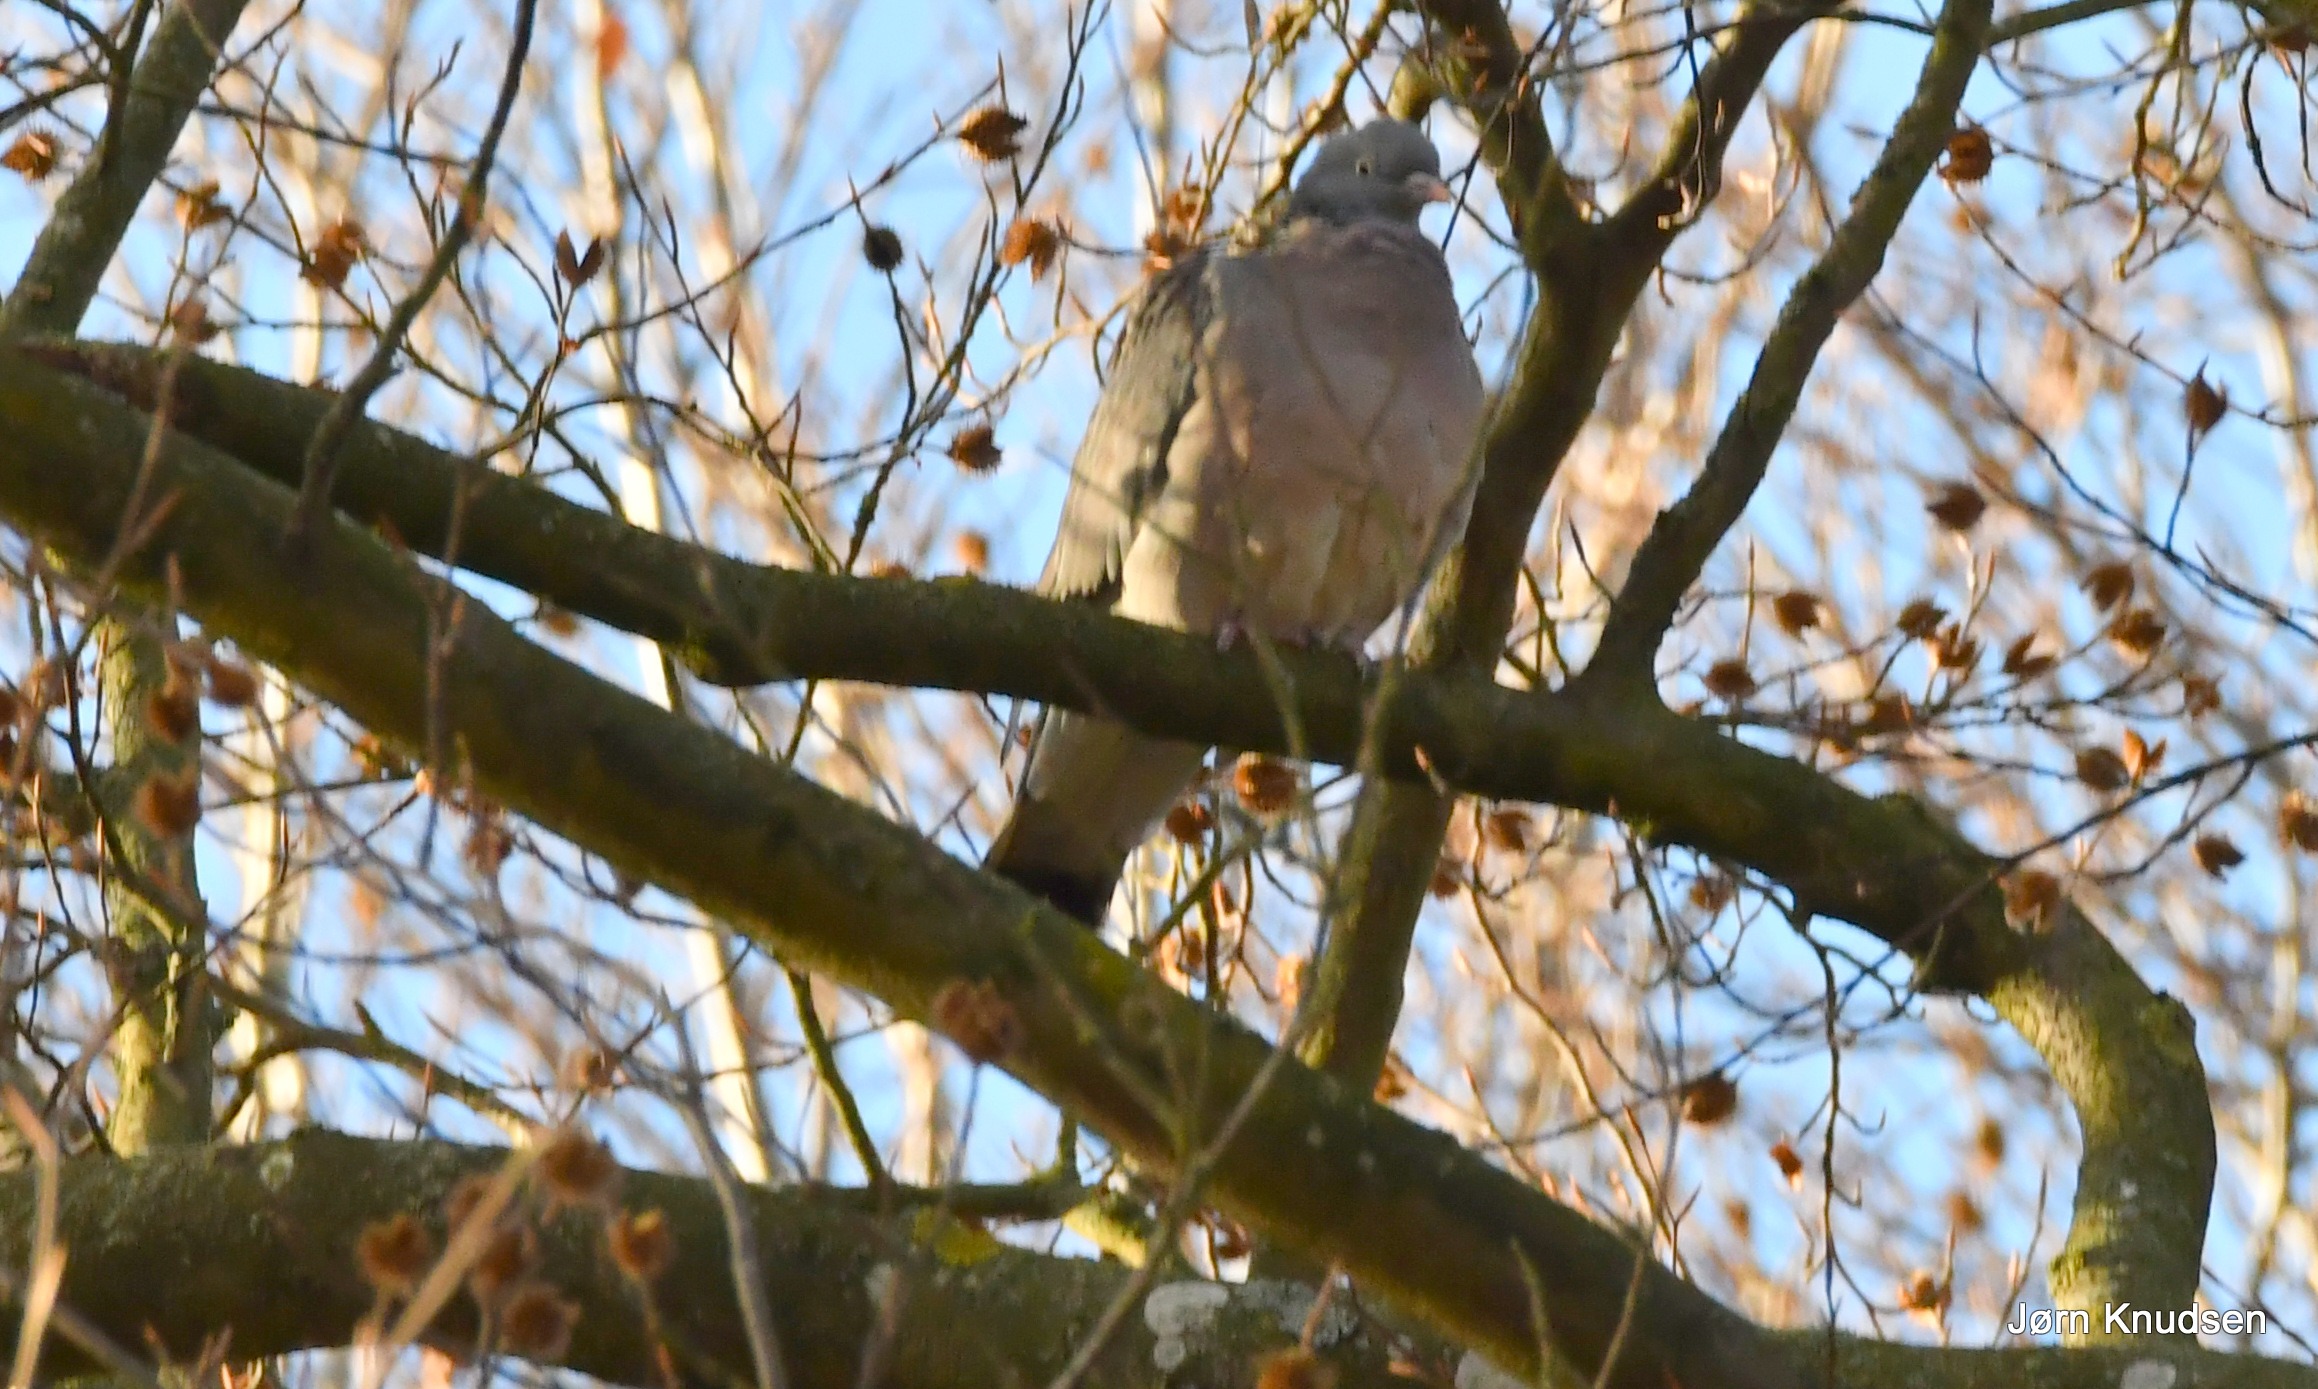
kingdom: Animalia
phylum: Chordata
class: Aves
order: Columbiformes
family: Columbidae
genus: Columba
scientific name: Columba palumbus
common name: Ringdue
